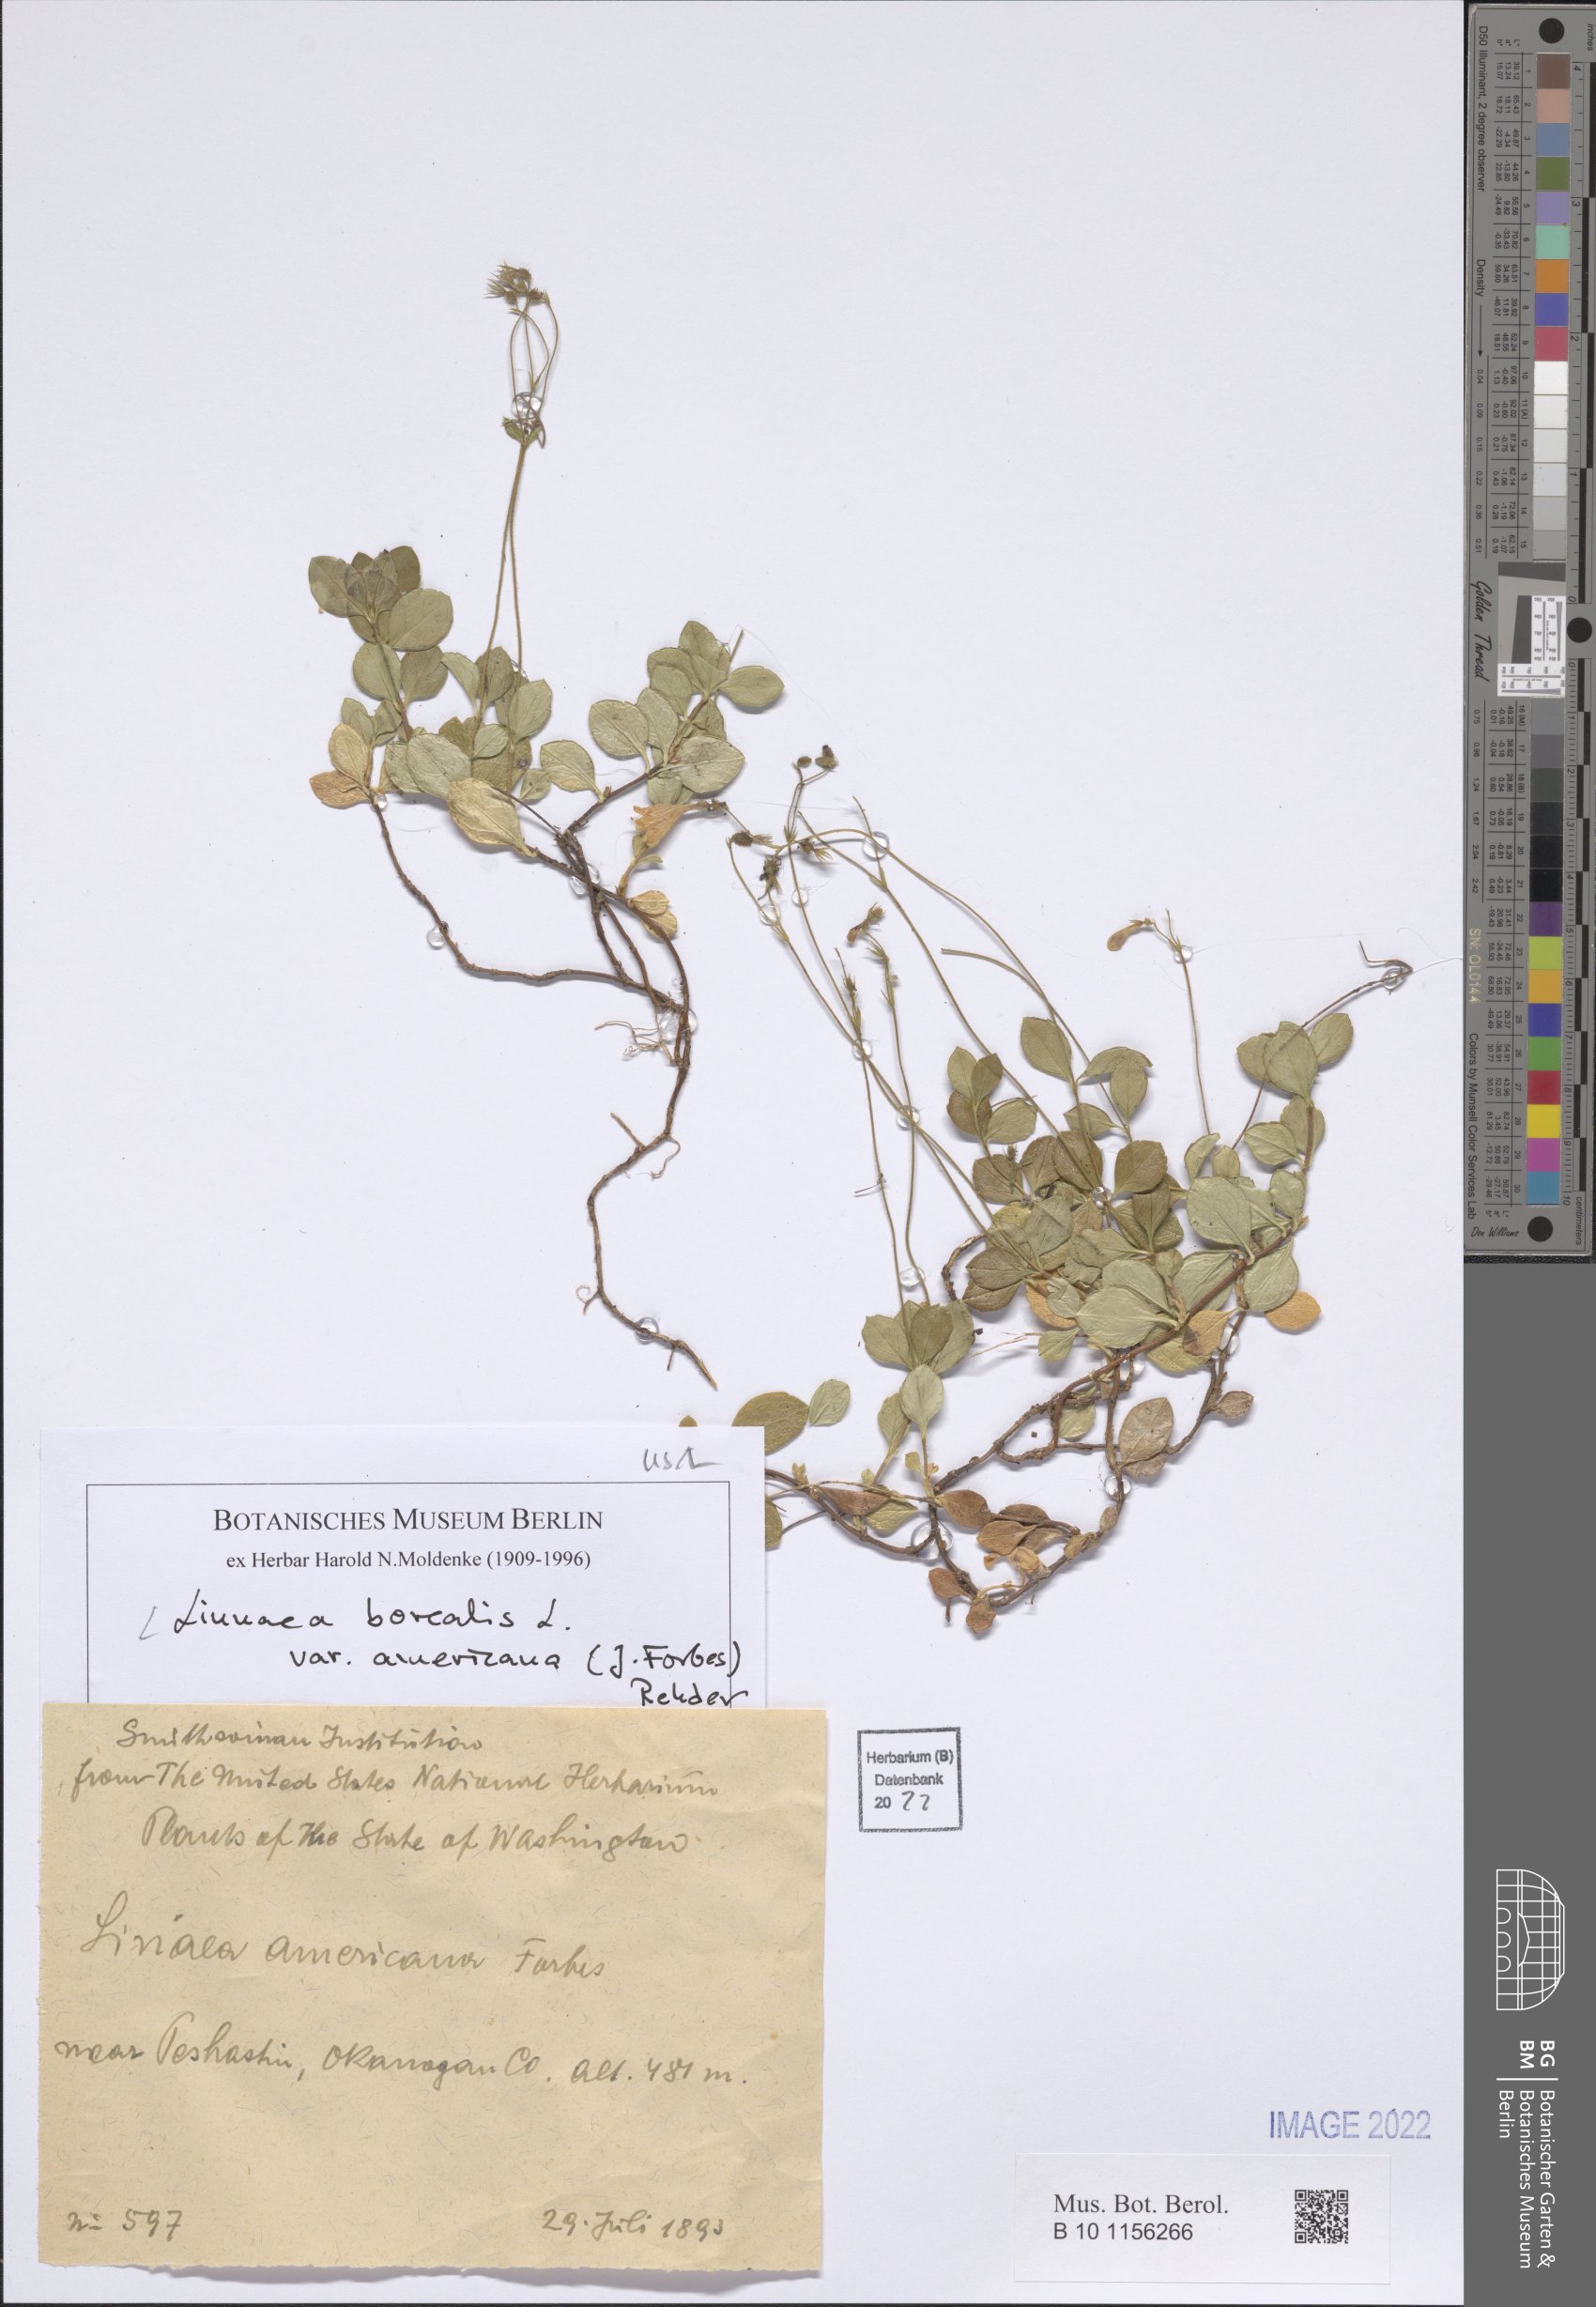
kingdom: Plantae
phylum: Tracheophyta
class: Magnoliopsida
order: Dipsacales
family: Caprifoliaceae
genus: Linnaea
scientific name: Linnaea borealis
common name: Twinflower
